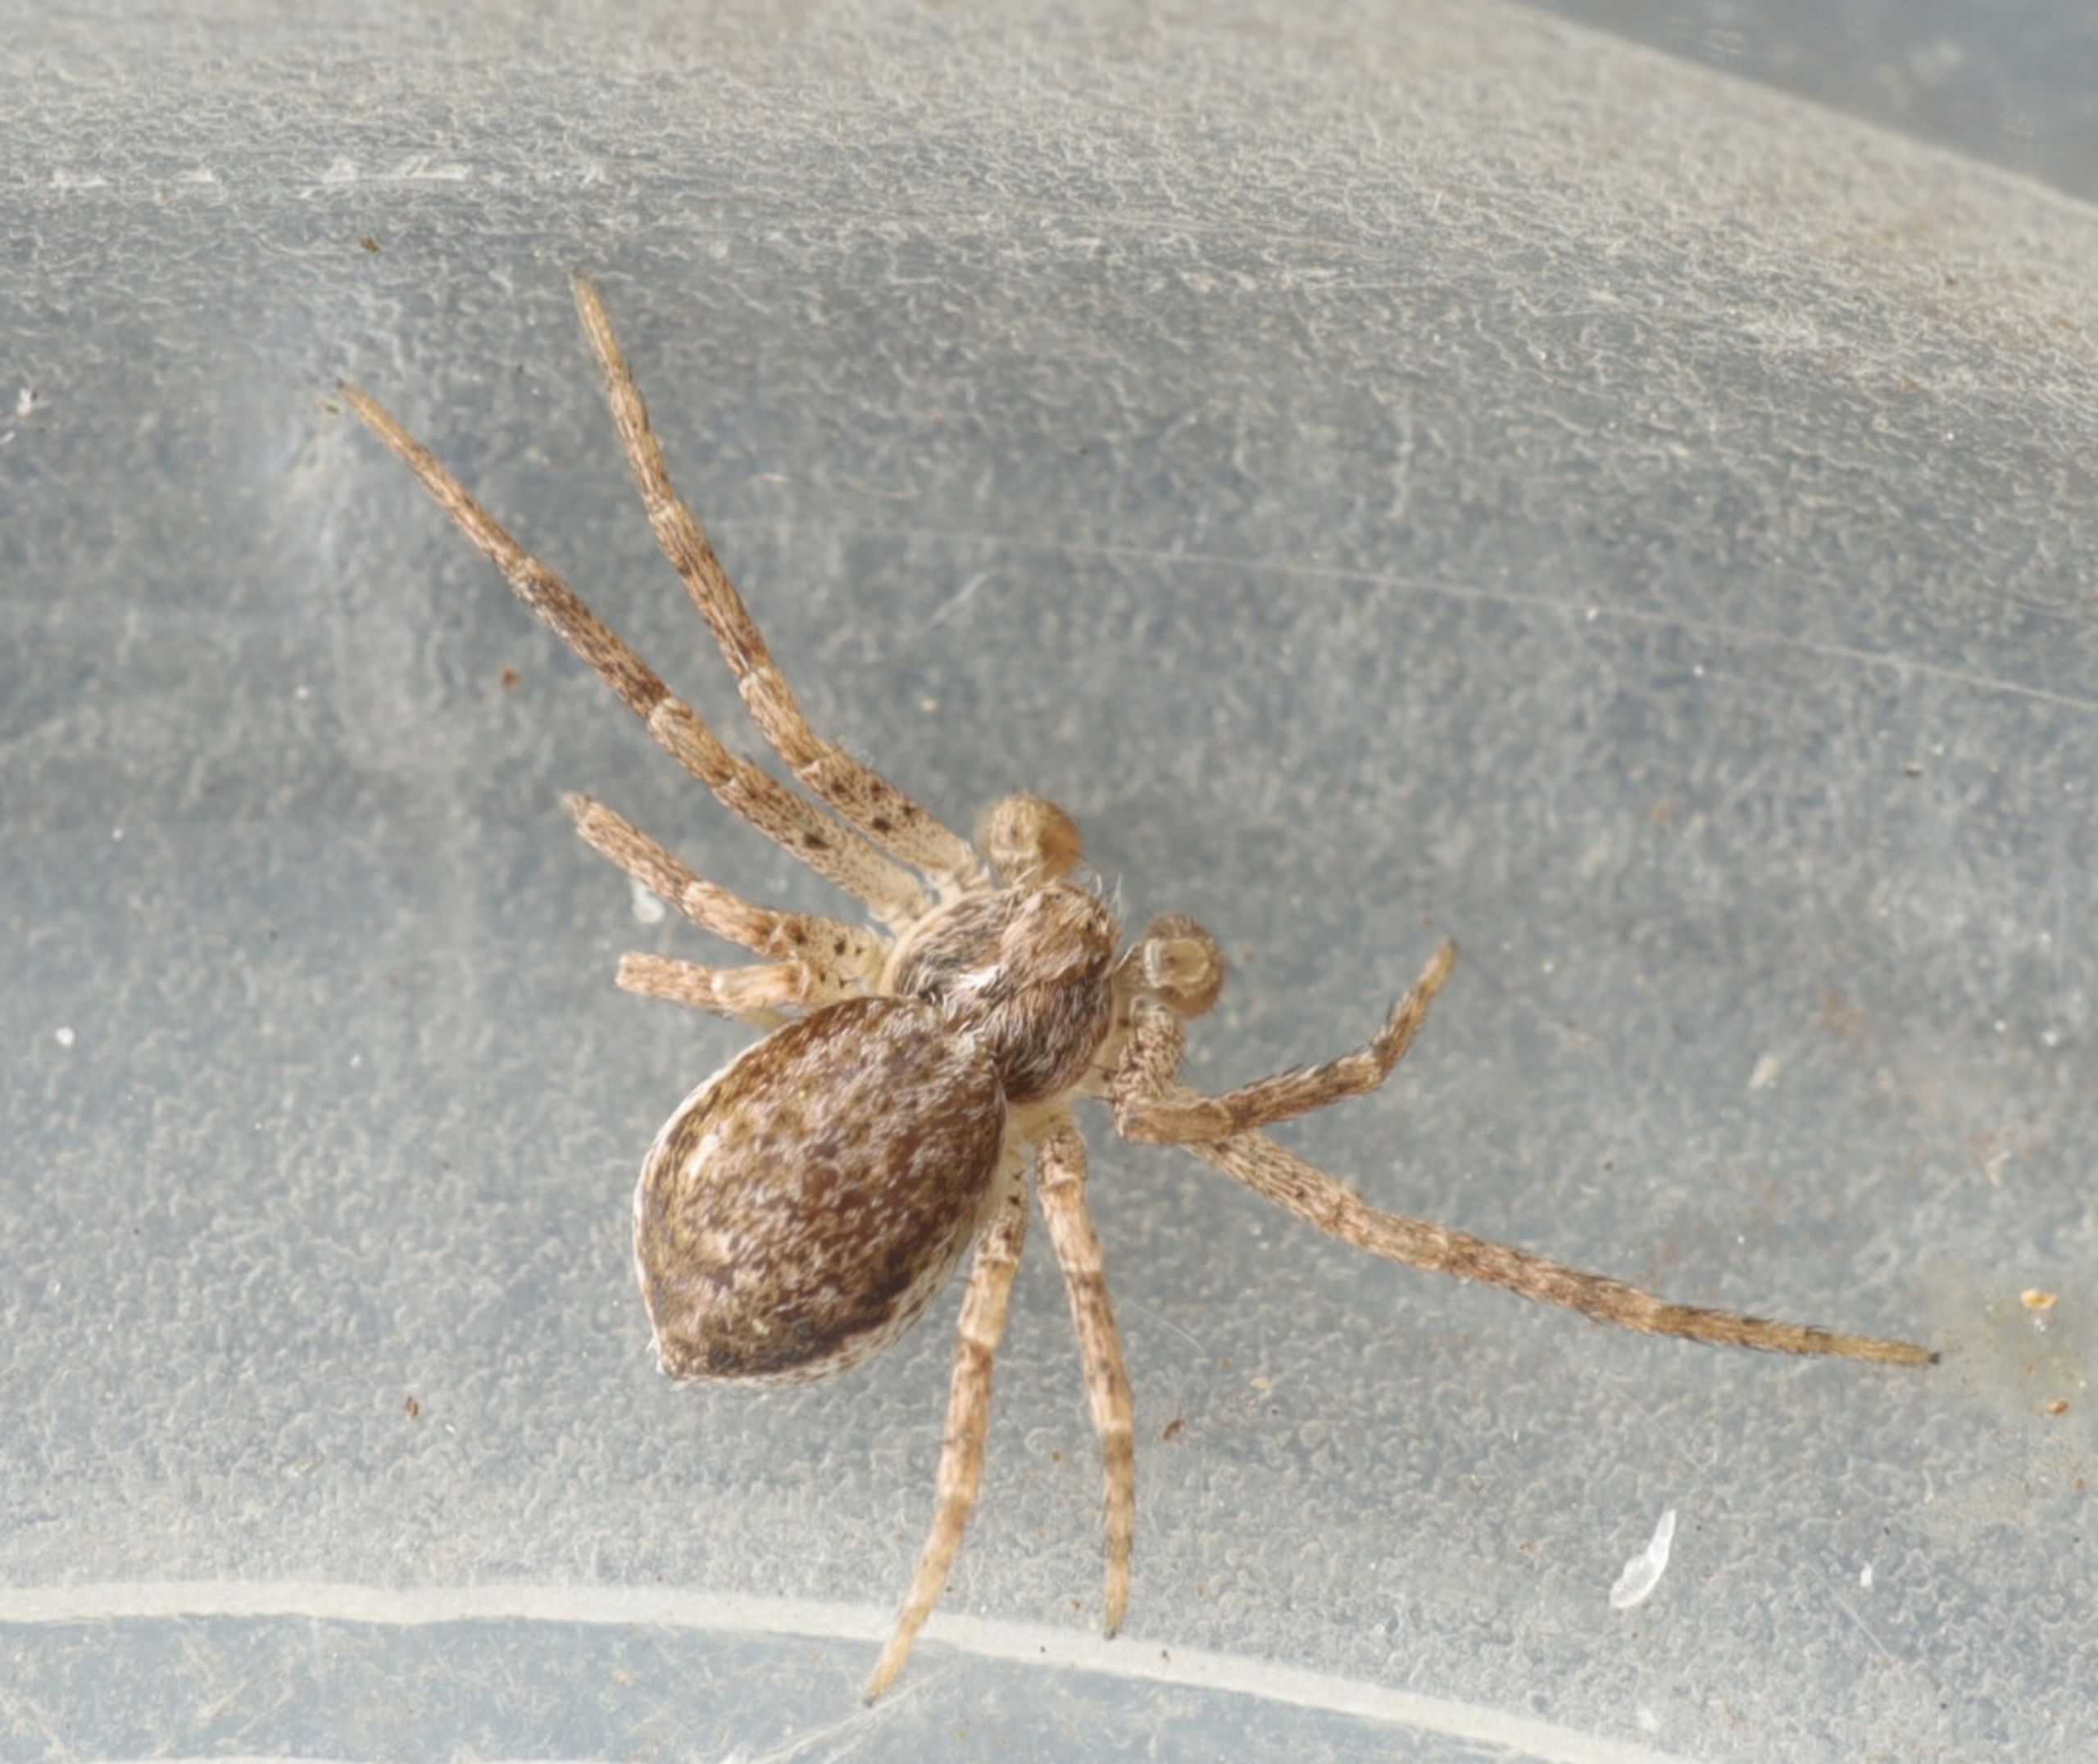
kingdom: Animalia
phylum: Arthropoda
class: Arachnida
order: Araneae
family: Philodromidae
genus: Philodromus
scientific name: Philodromus dispar
